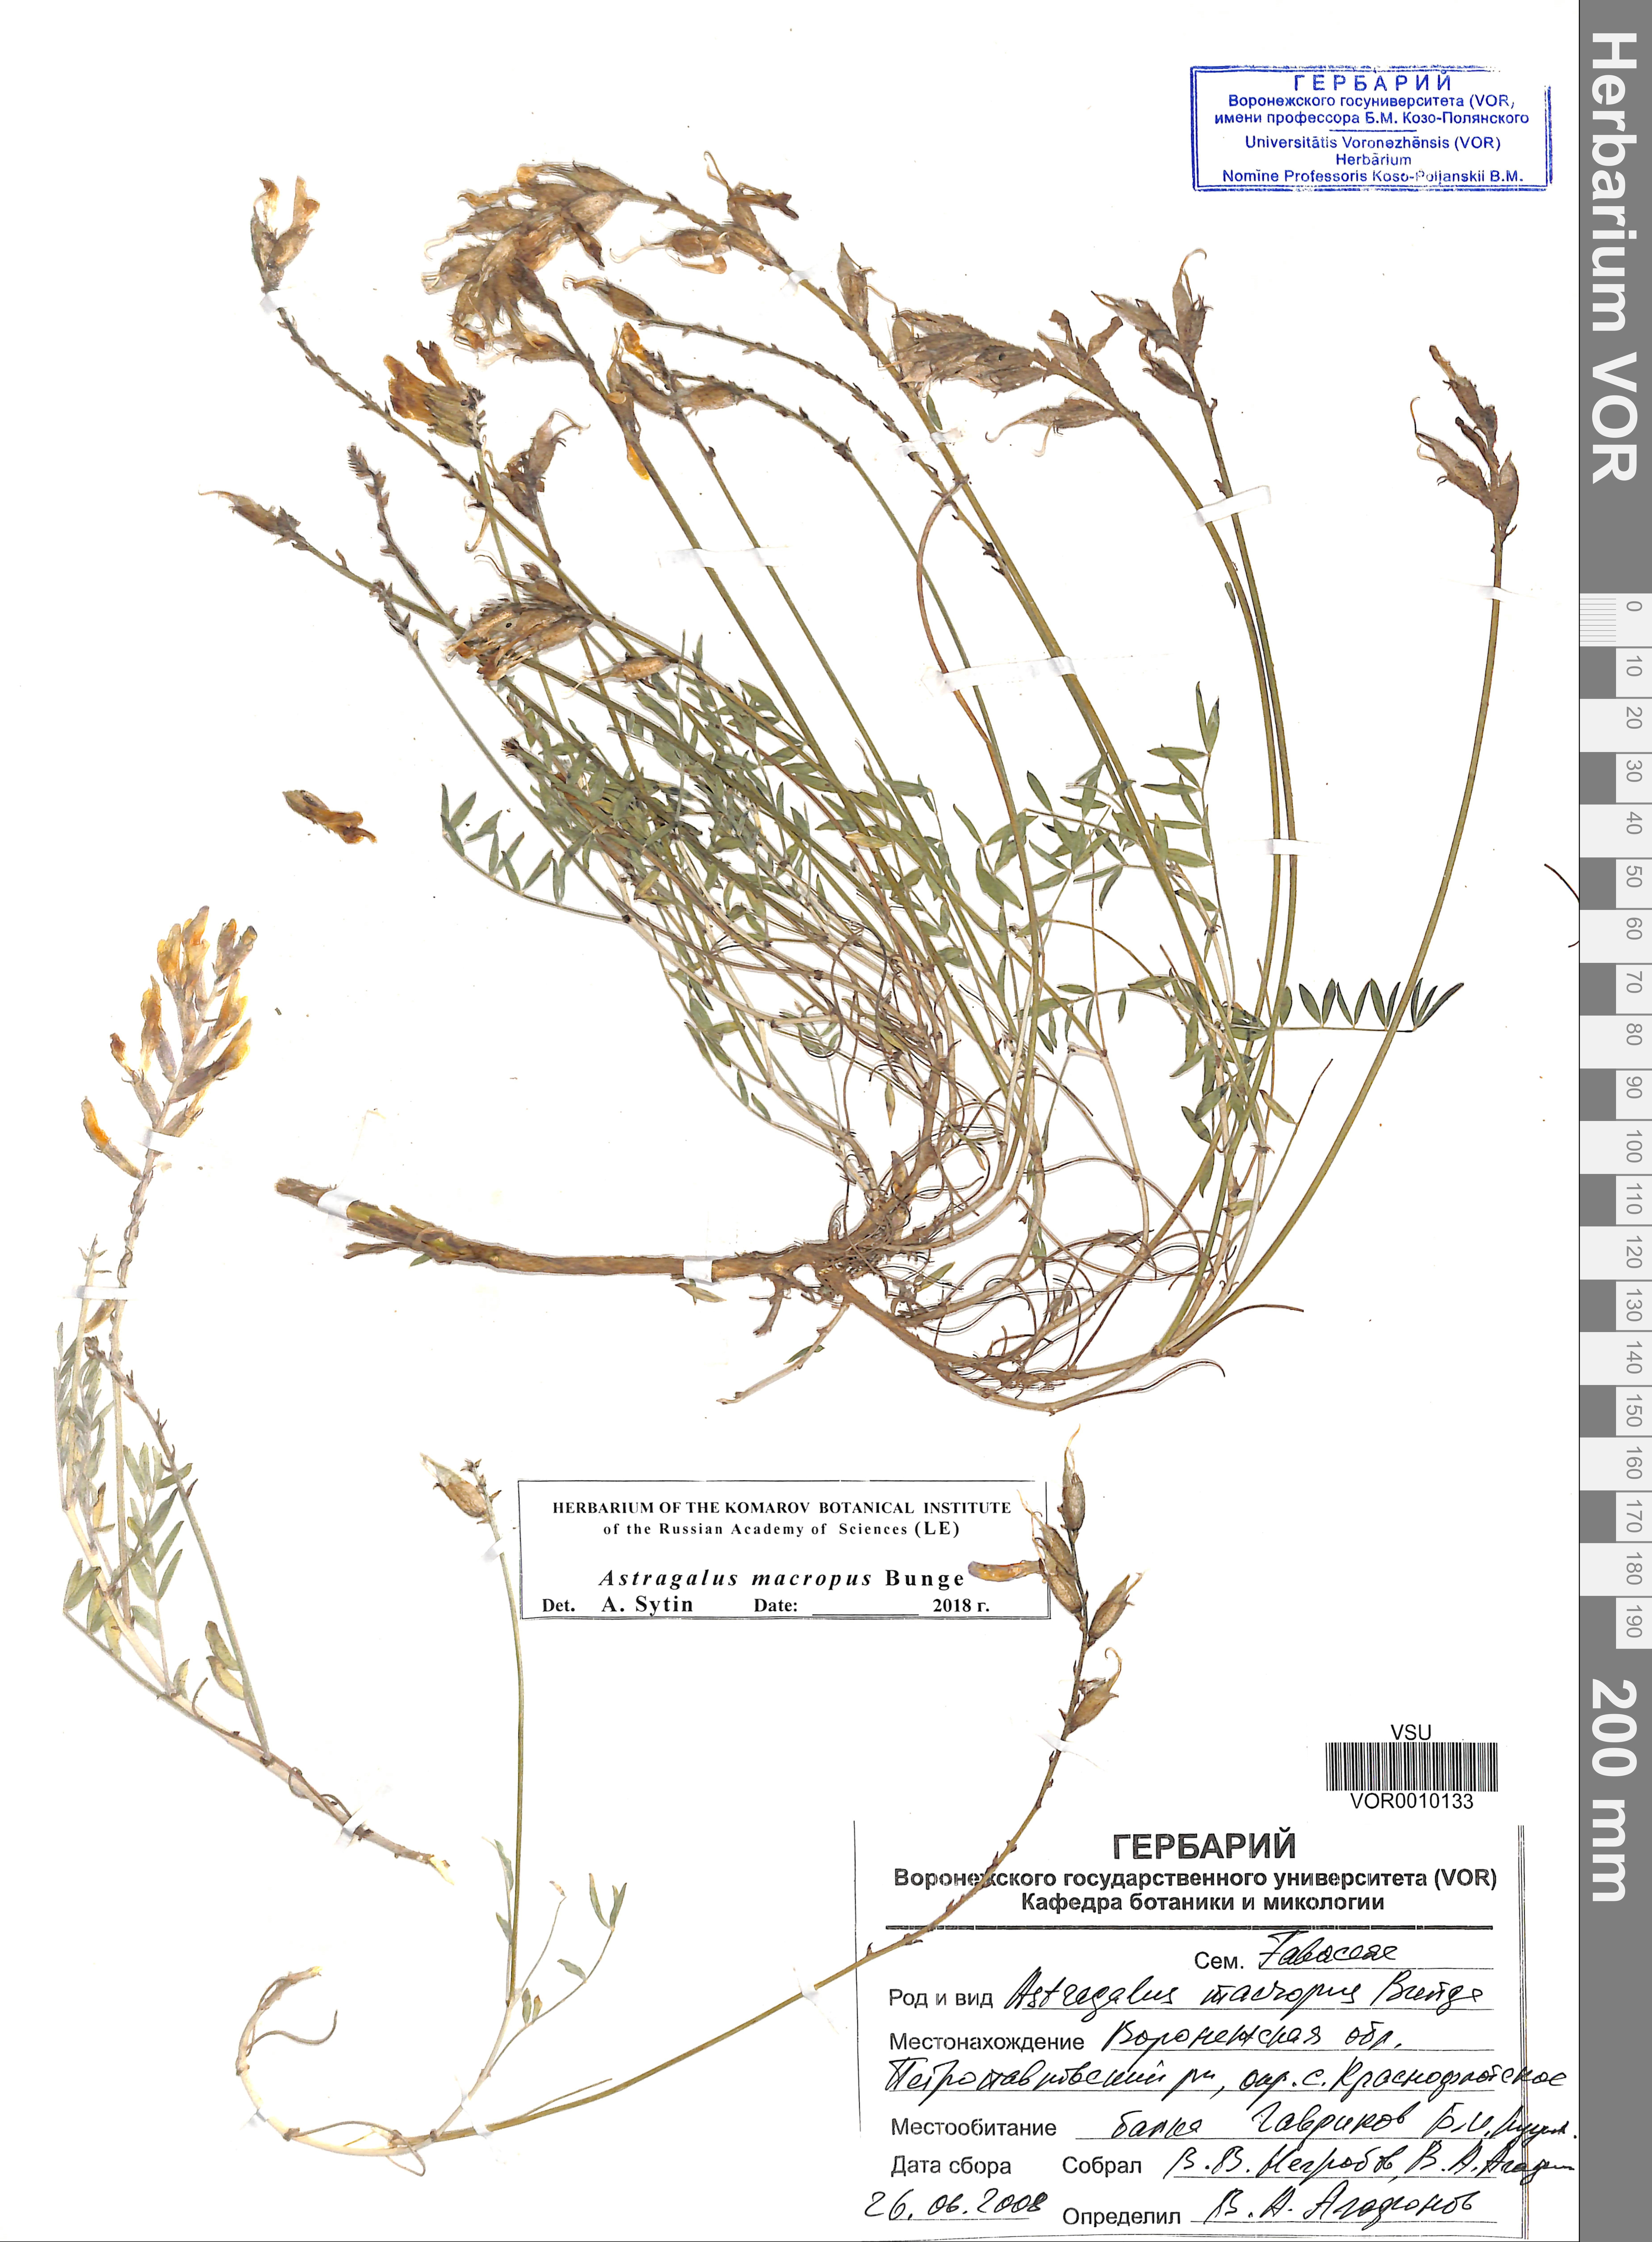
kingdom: Plantae
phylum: Tracheophyta
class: Magnoliopsida
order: Fabales
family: Fabaceae
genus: Astragalus
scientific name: Astragalus macropus
